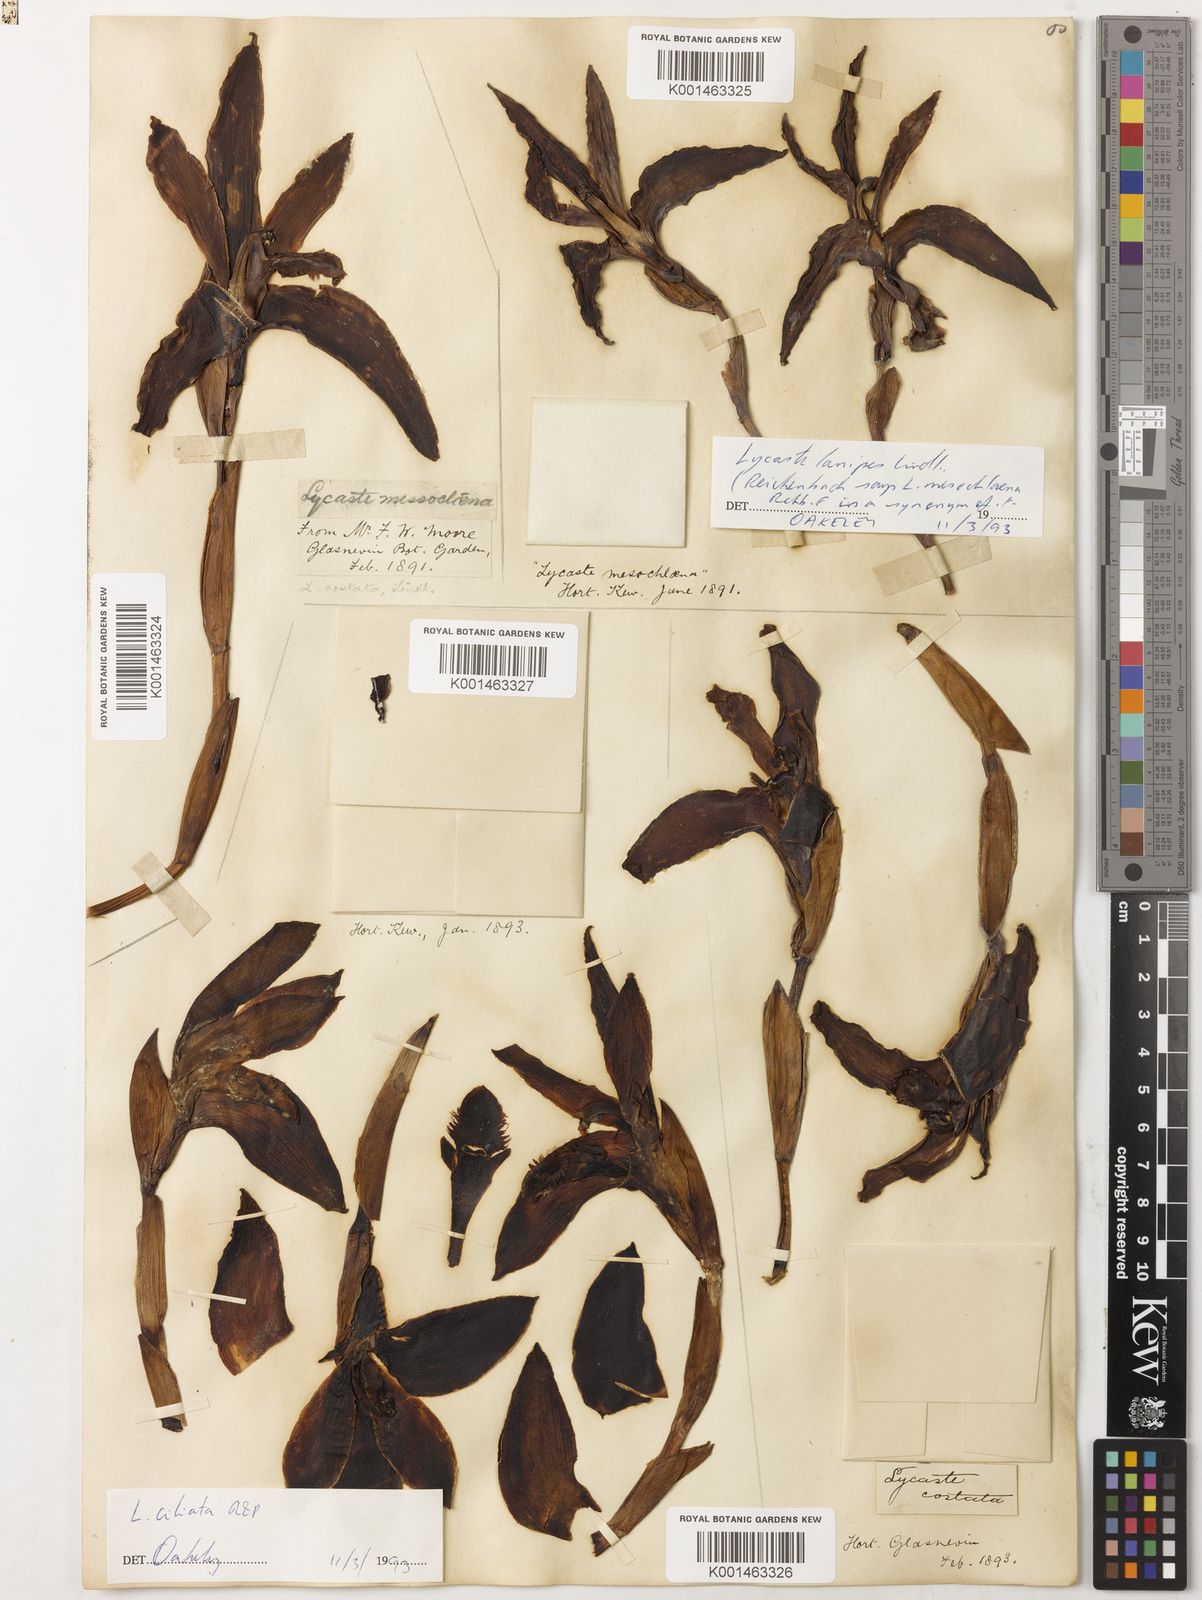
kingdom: Plantae
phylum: Tracheophyta
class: Liliopsida
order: Asparagales
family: Orchidaceae
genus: Ida
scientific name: Ida reichenbachii
